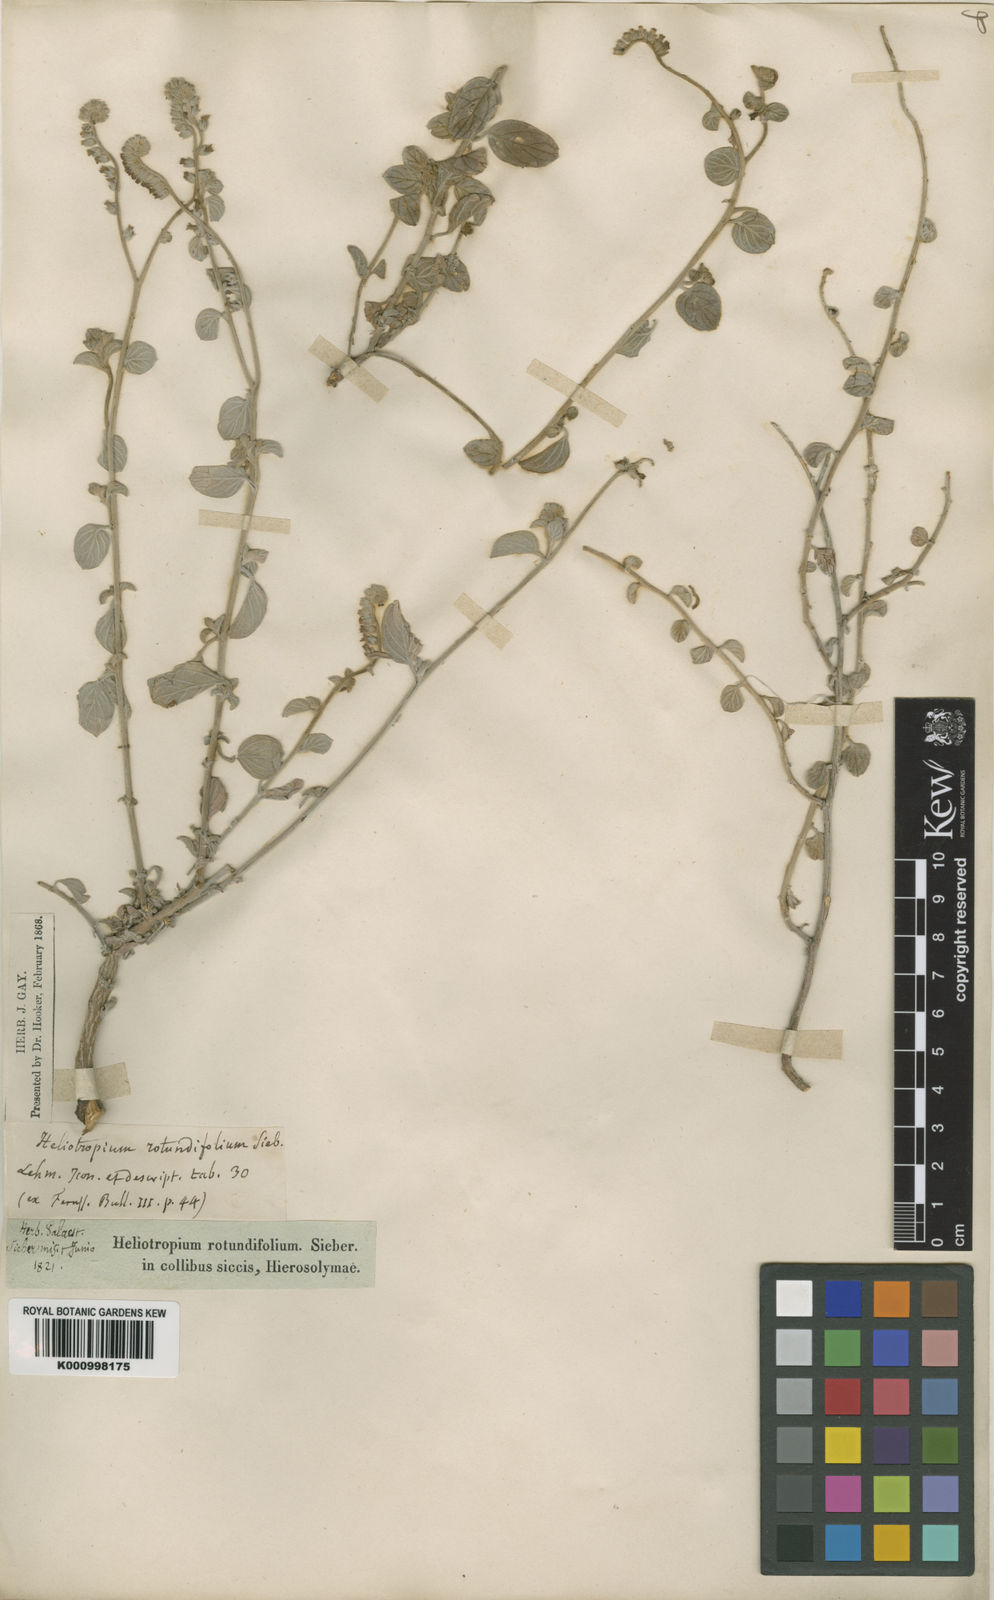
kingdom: Plantae
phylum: Tracheophyta
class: Magnoliopsida
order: Boraginales
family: Heliotropiaceae
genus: Heliotropium
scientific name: Heliotropium rotundifolium
